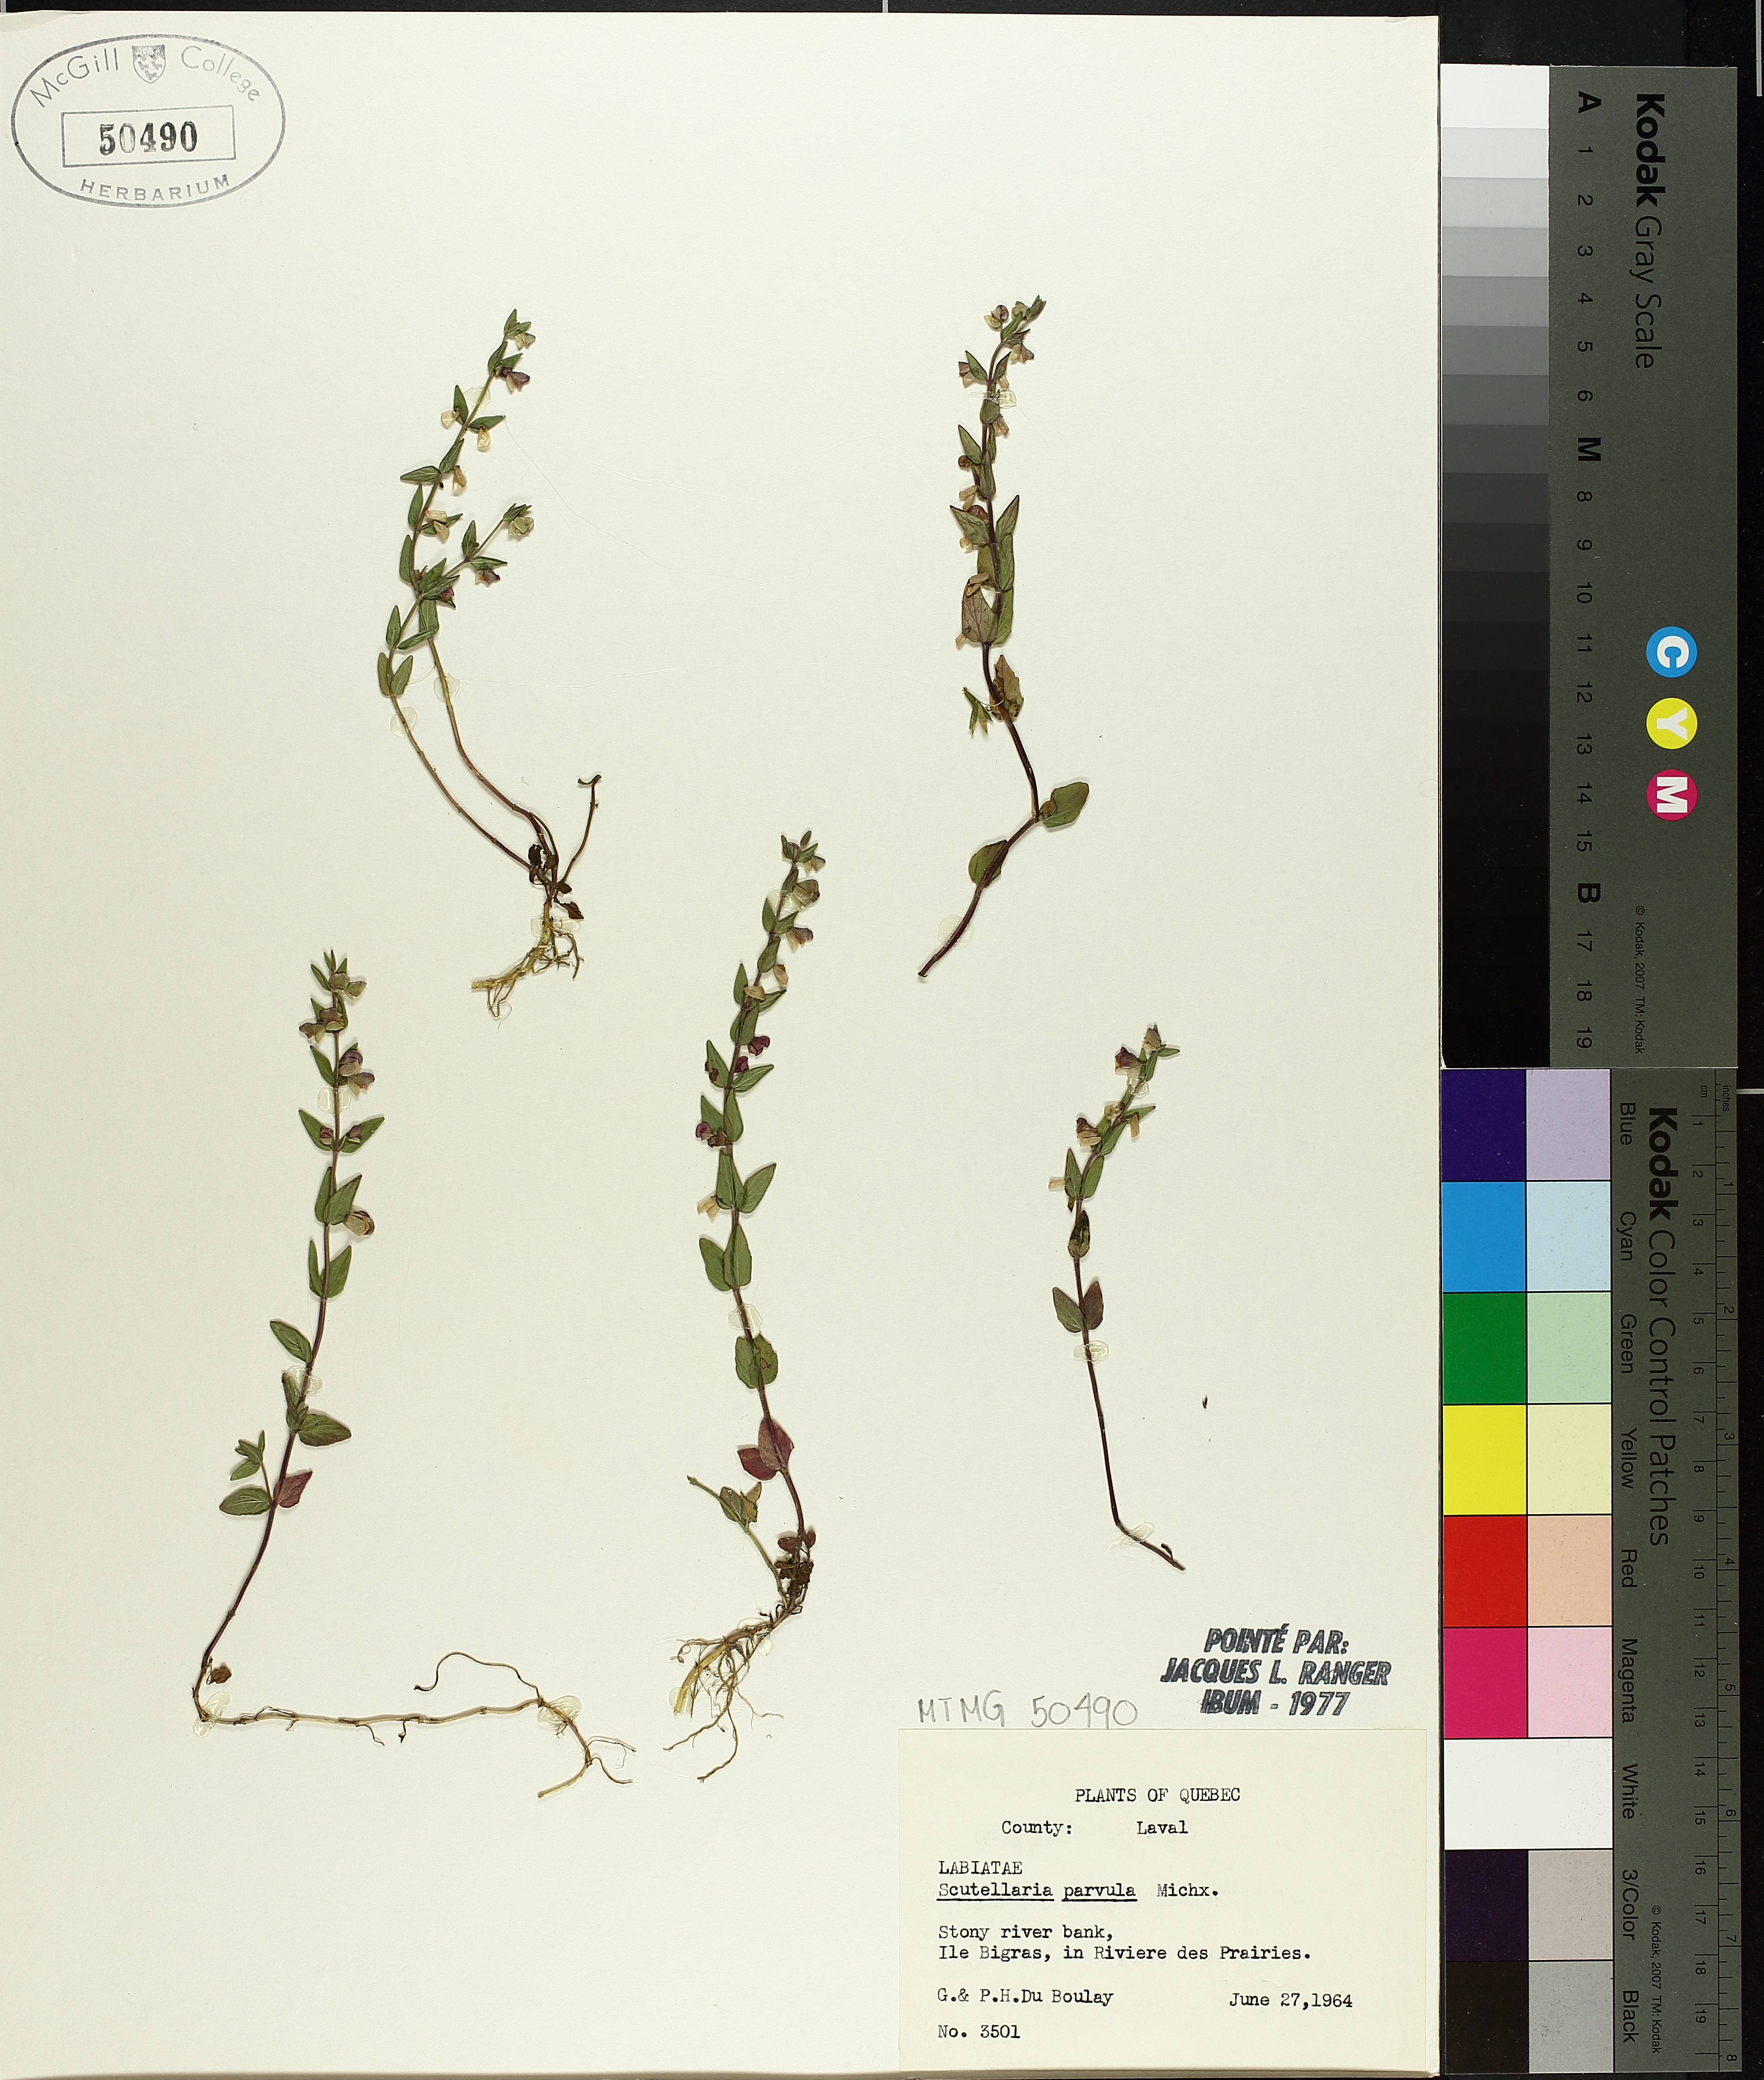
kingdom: Plantae
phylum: Tracheophyta
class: Magnoliopsida
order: Lamiales
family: Lamiaceae
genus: Scutellaria
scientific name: Scutellaria parvula
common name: Little scullcap
